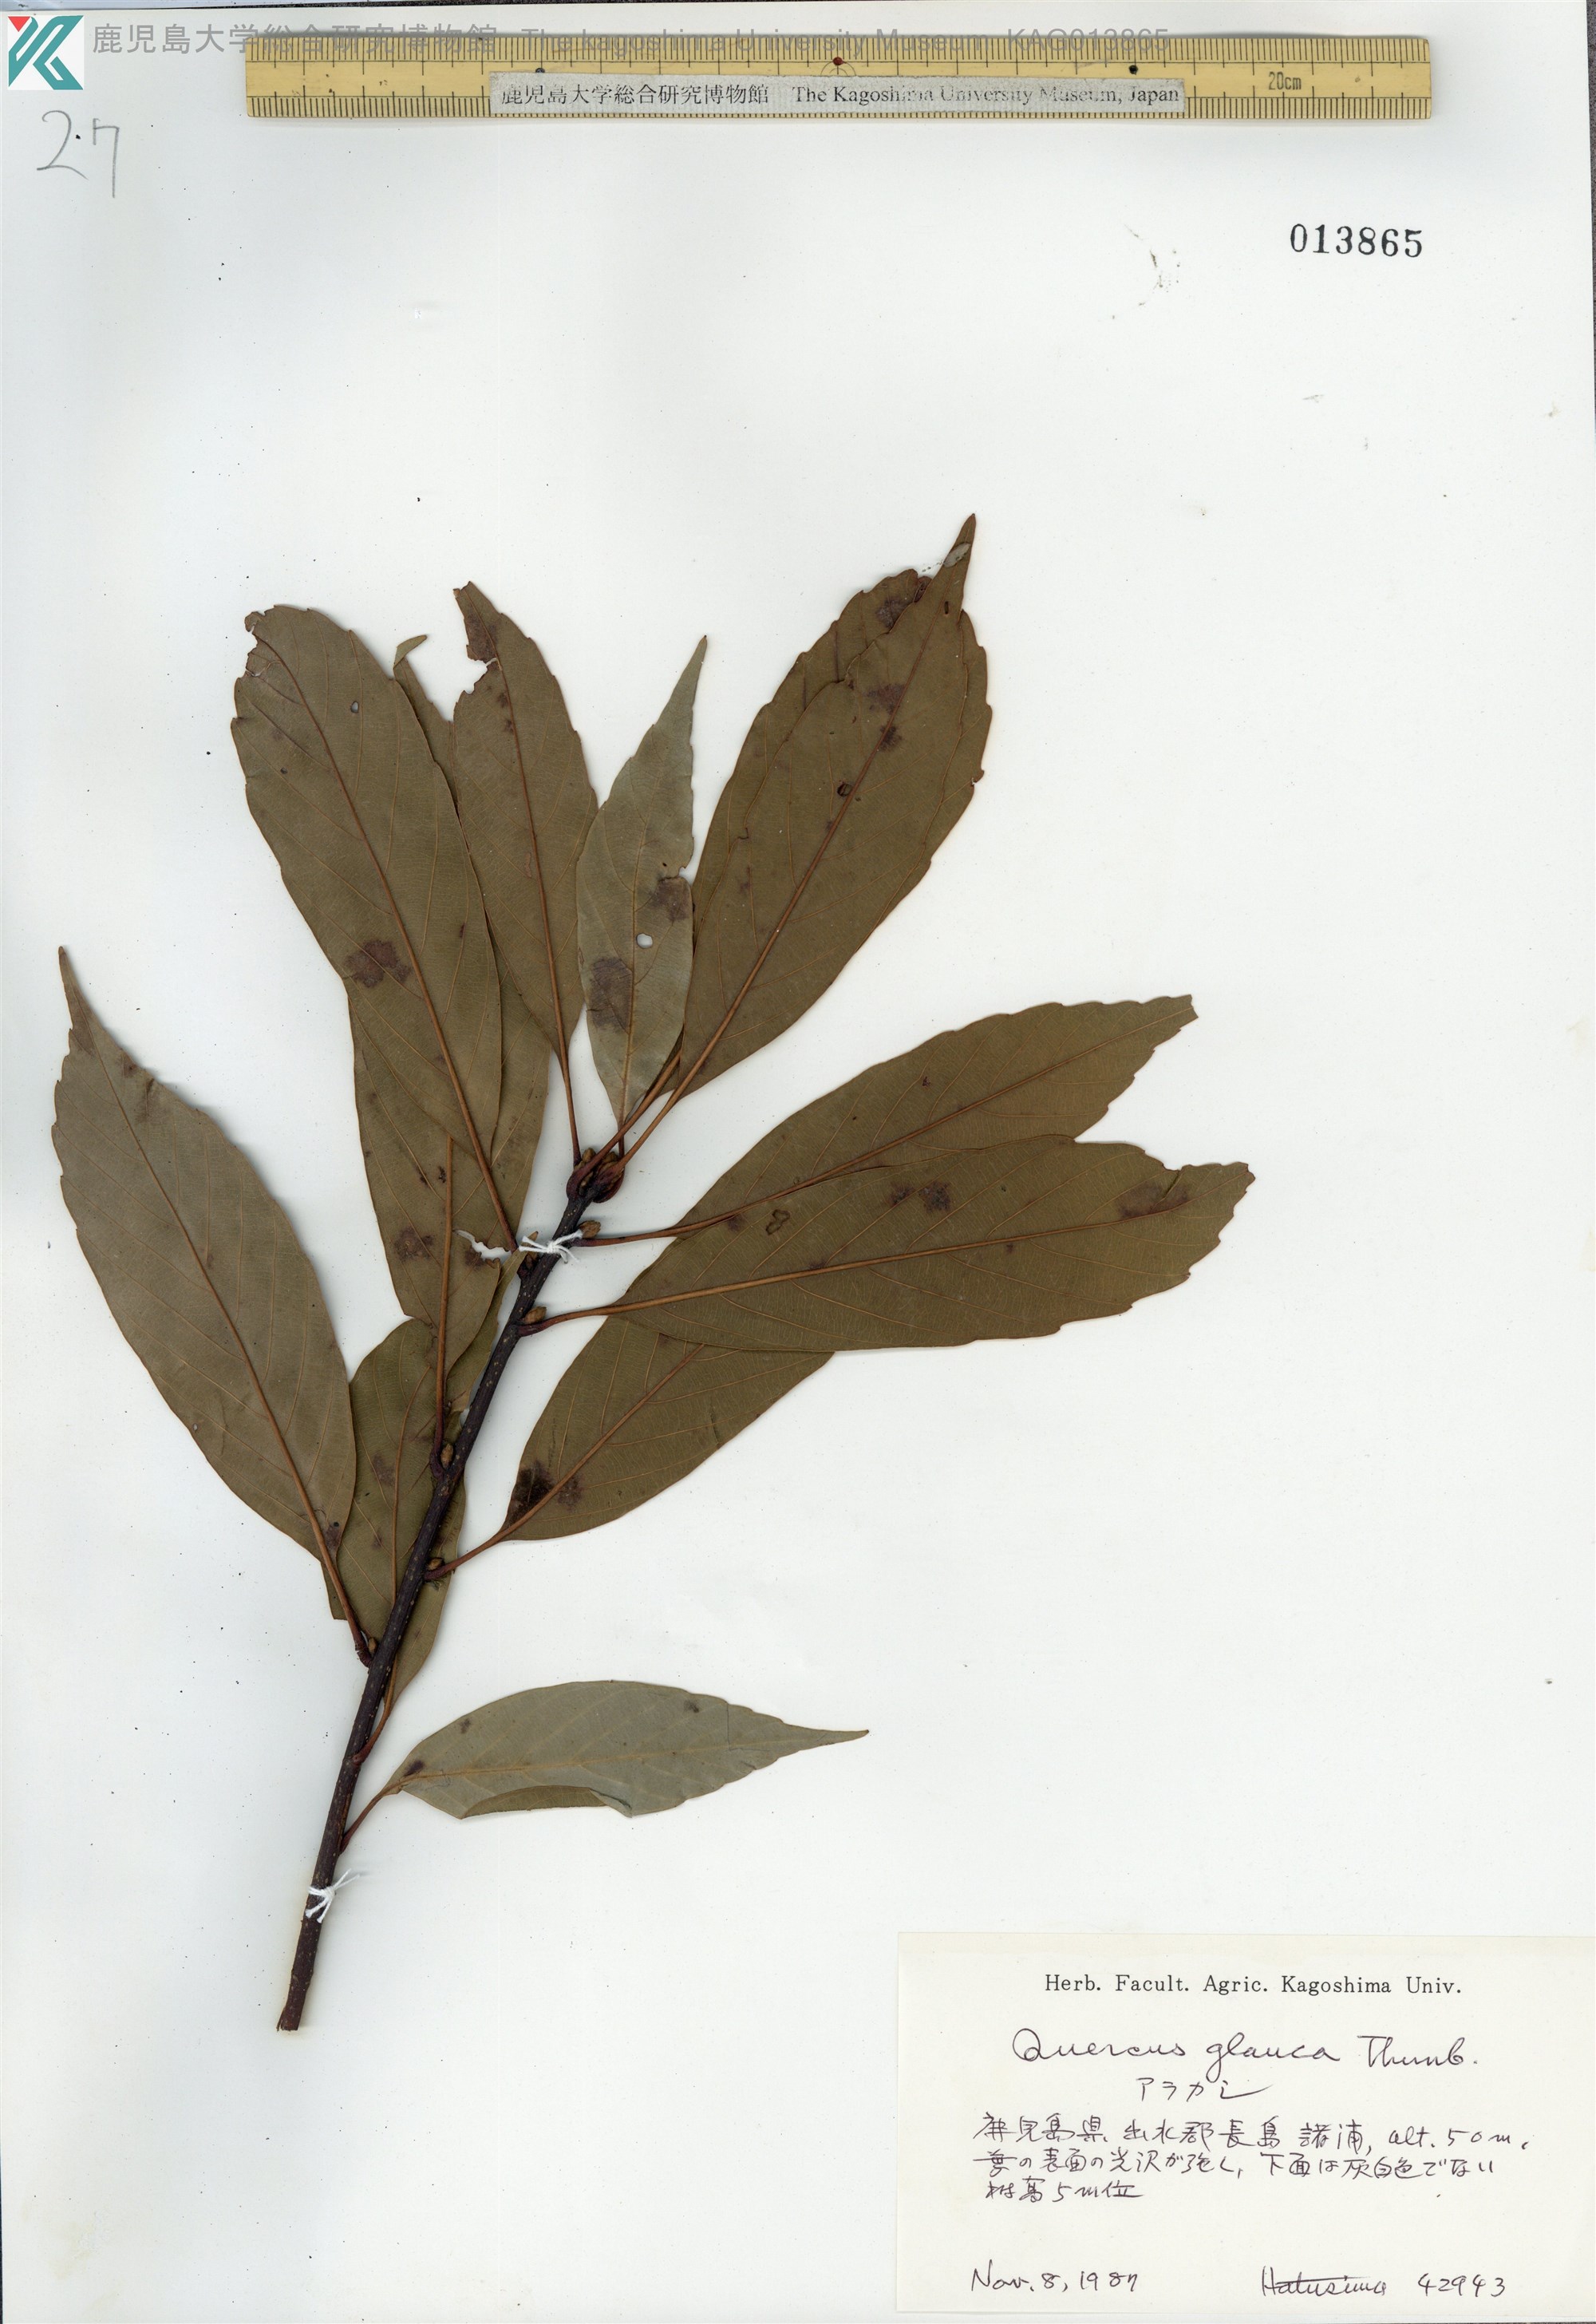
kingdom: Plantae
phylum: Tracheophyta
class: Magnoliopsida
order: Fagales
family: Fagaceae
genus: Quercus
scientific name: Quercus glauca
